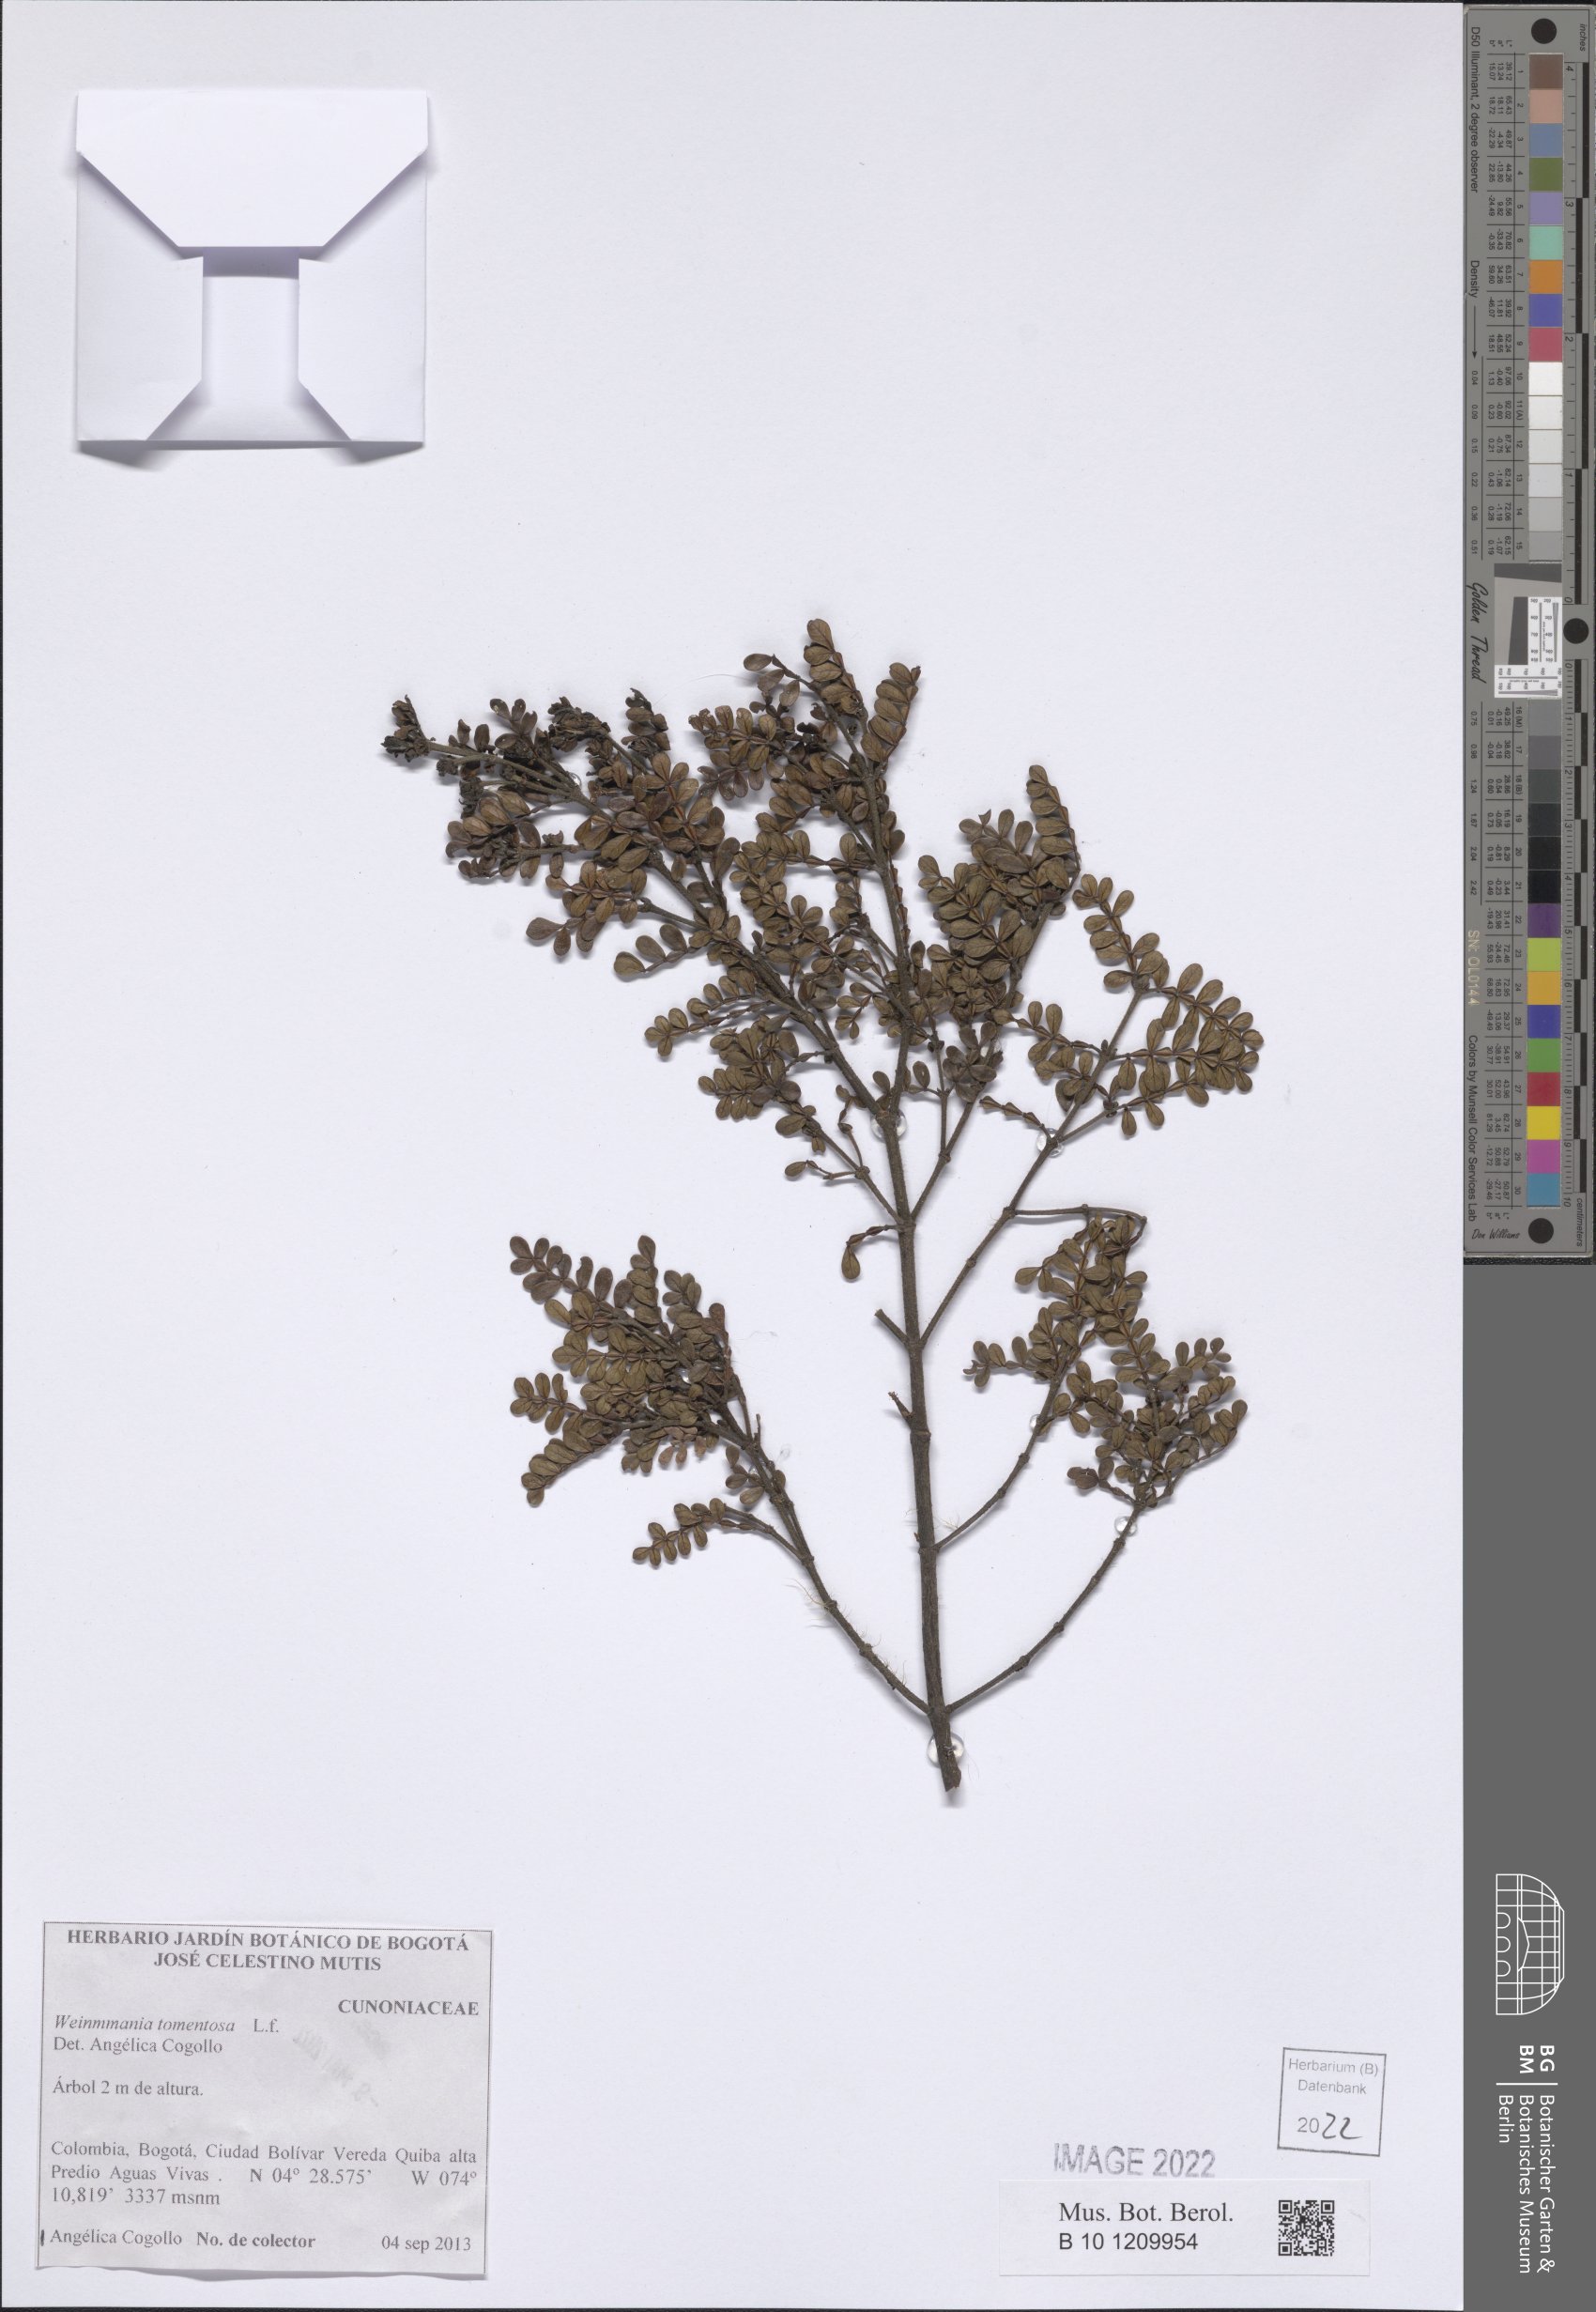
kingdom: Plantae
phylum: Tracheophyta
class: Magnoliopsida
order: Oxalidales
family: Cunoniaceae
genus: Weinmannia
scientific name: Weinmannia tomentosa
